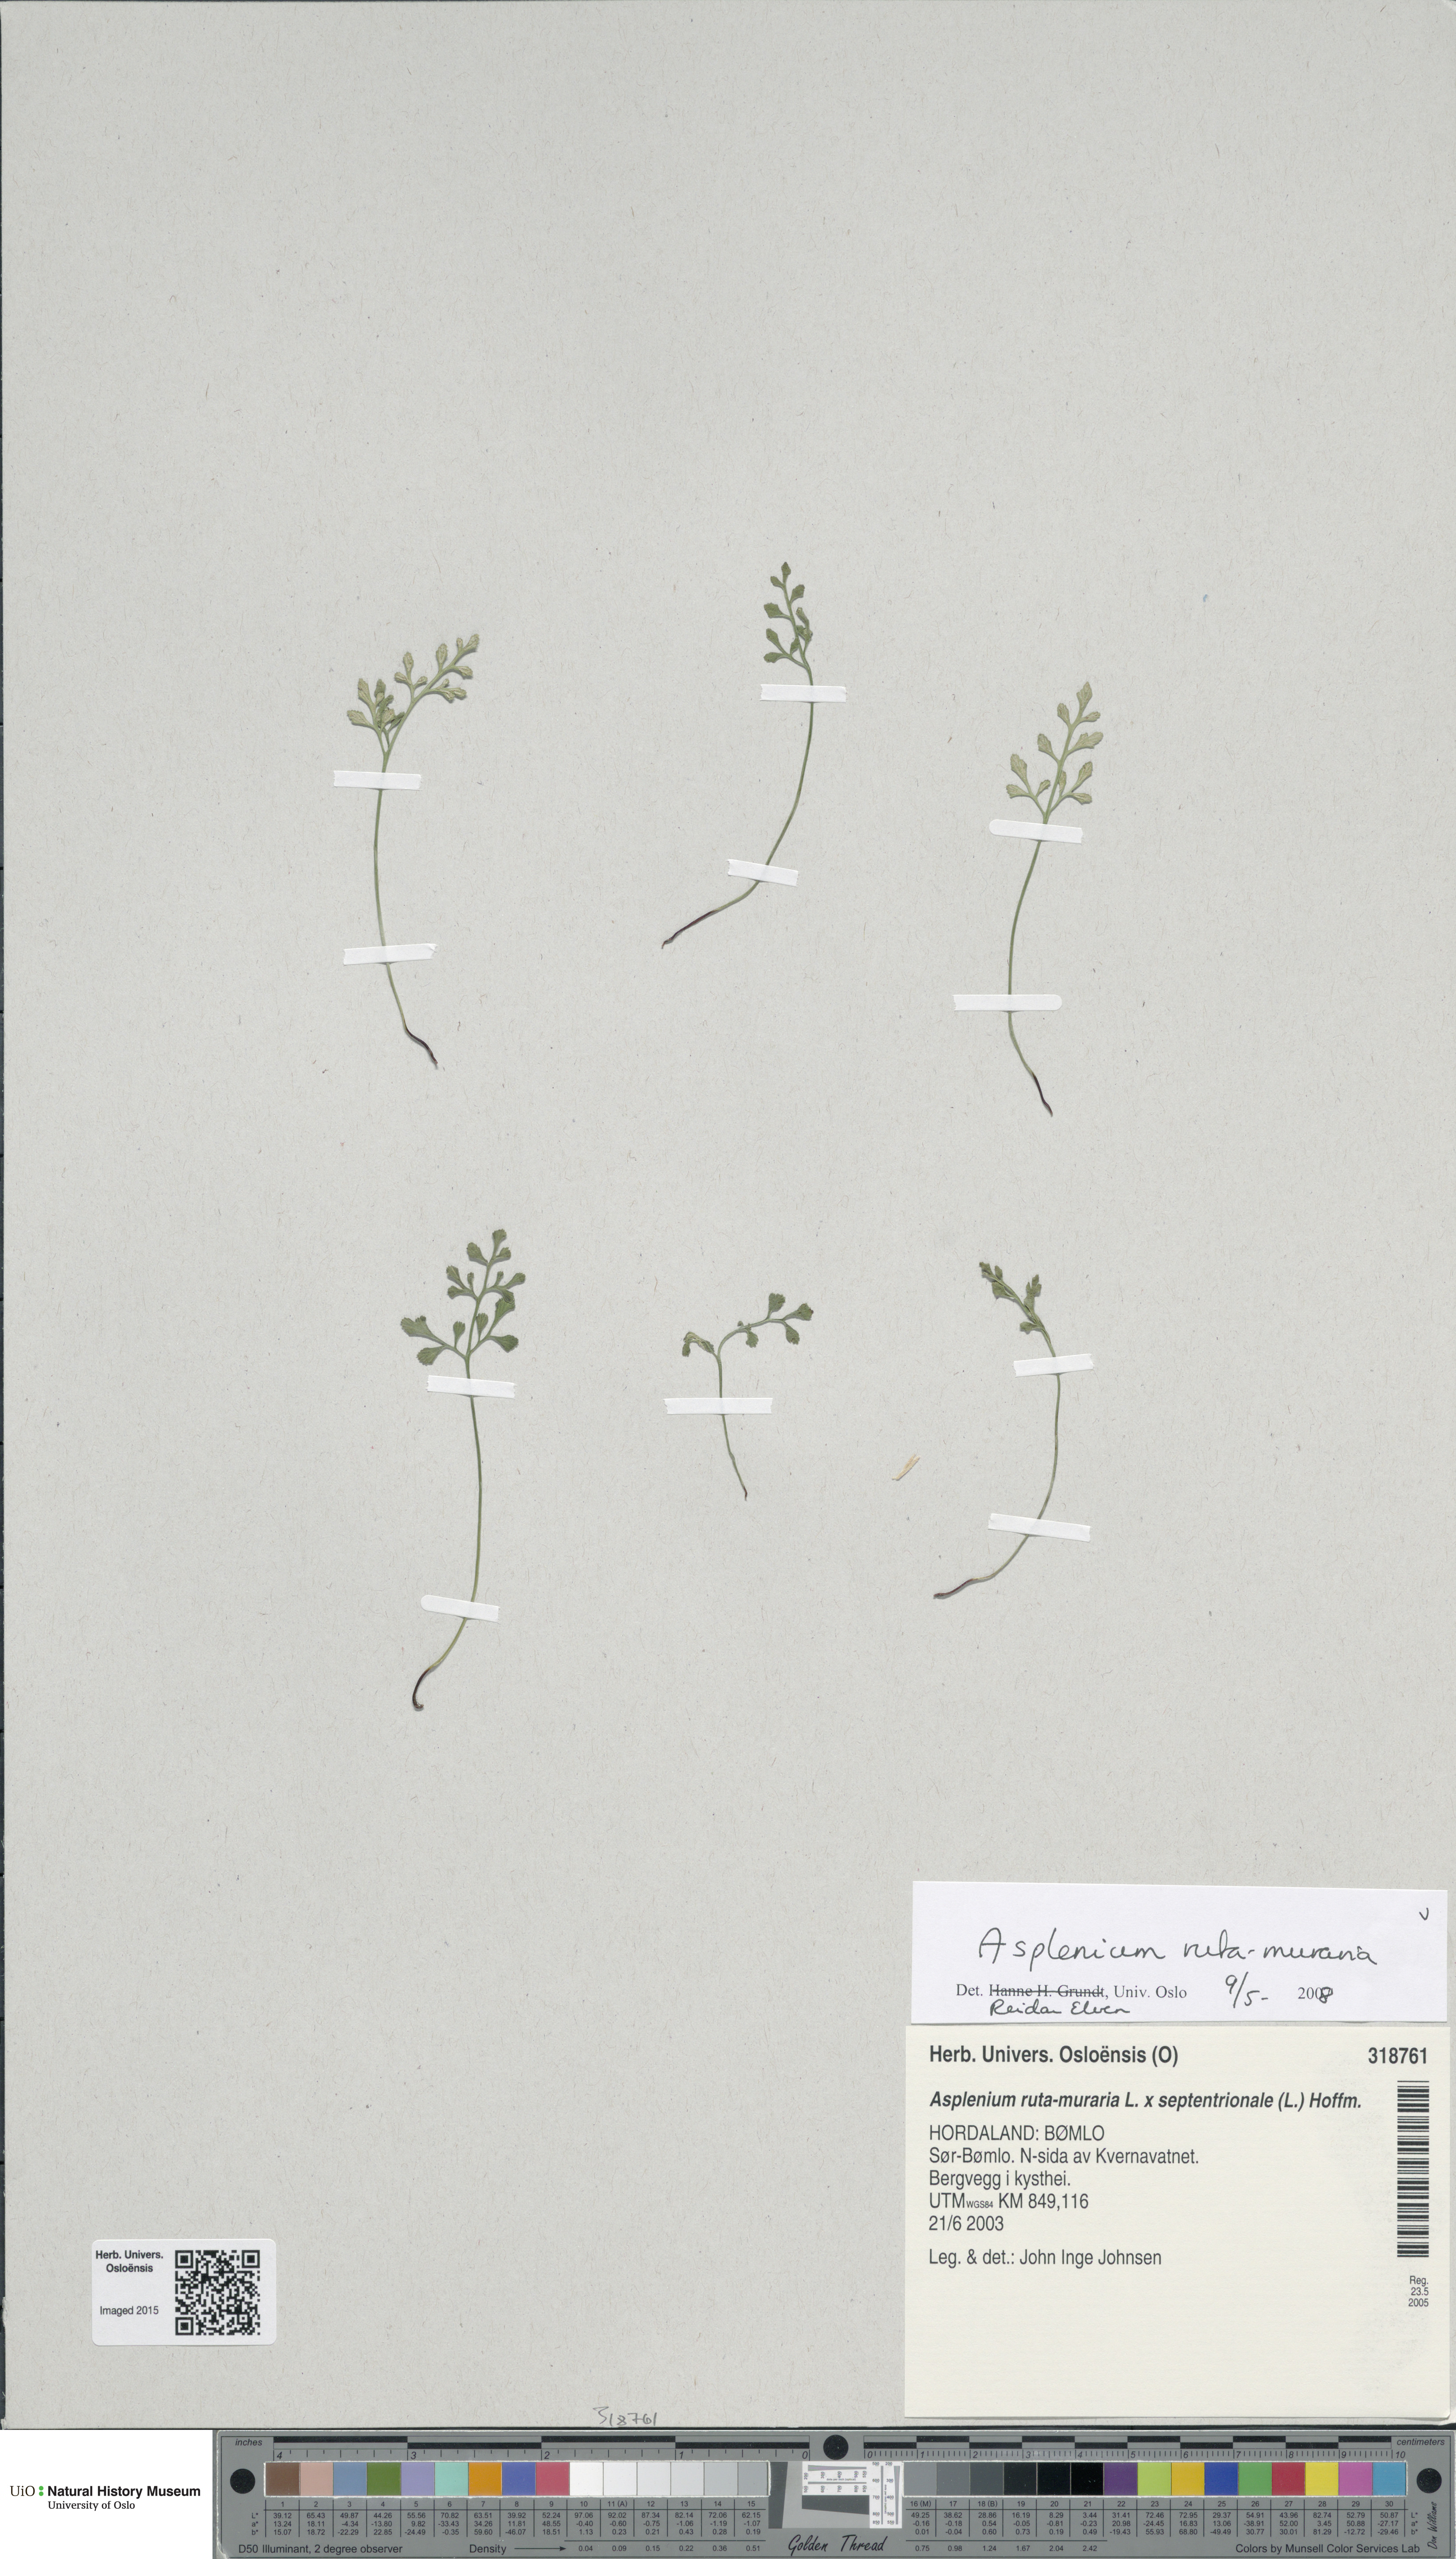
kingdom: Plantae
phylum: Tracheophyta
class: Polypodiopsida
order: Polypodiales
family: Aspleniaceae
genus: Asplenium
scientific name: Asplenium ruta-muraria
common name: Wall-rue
